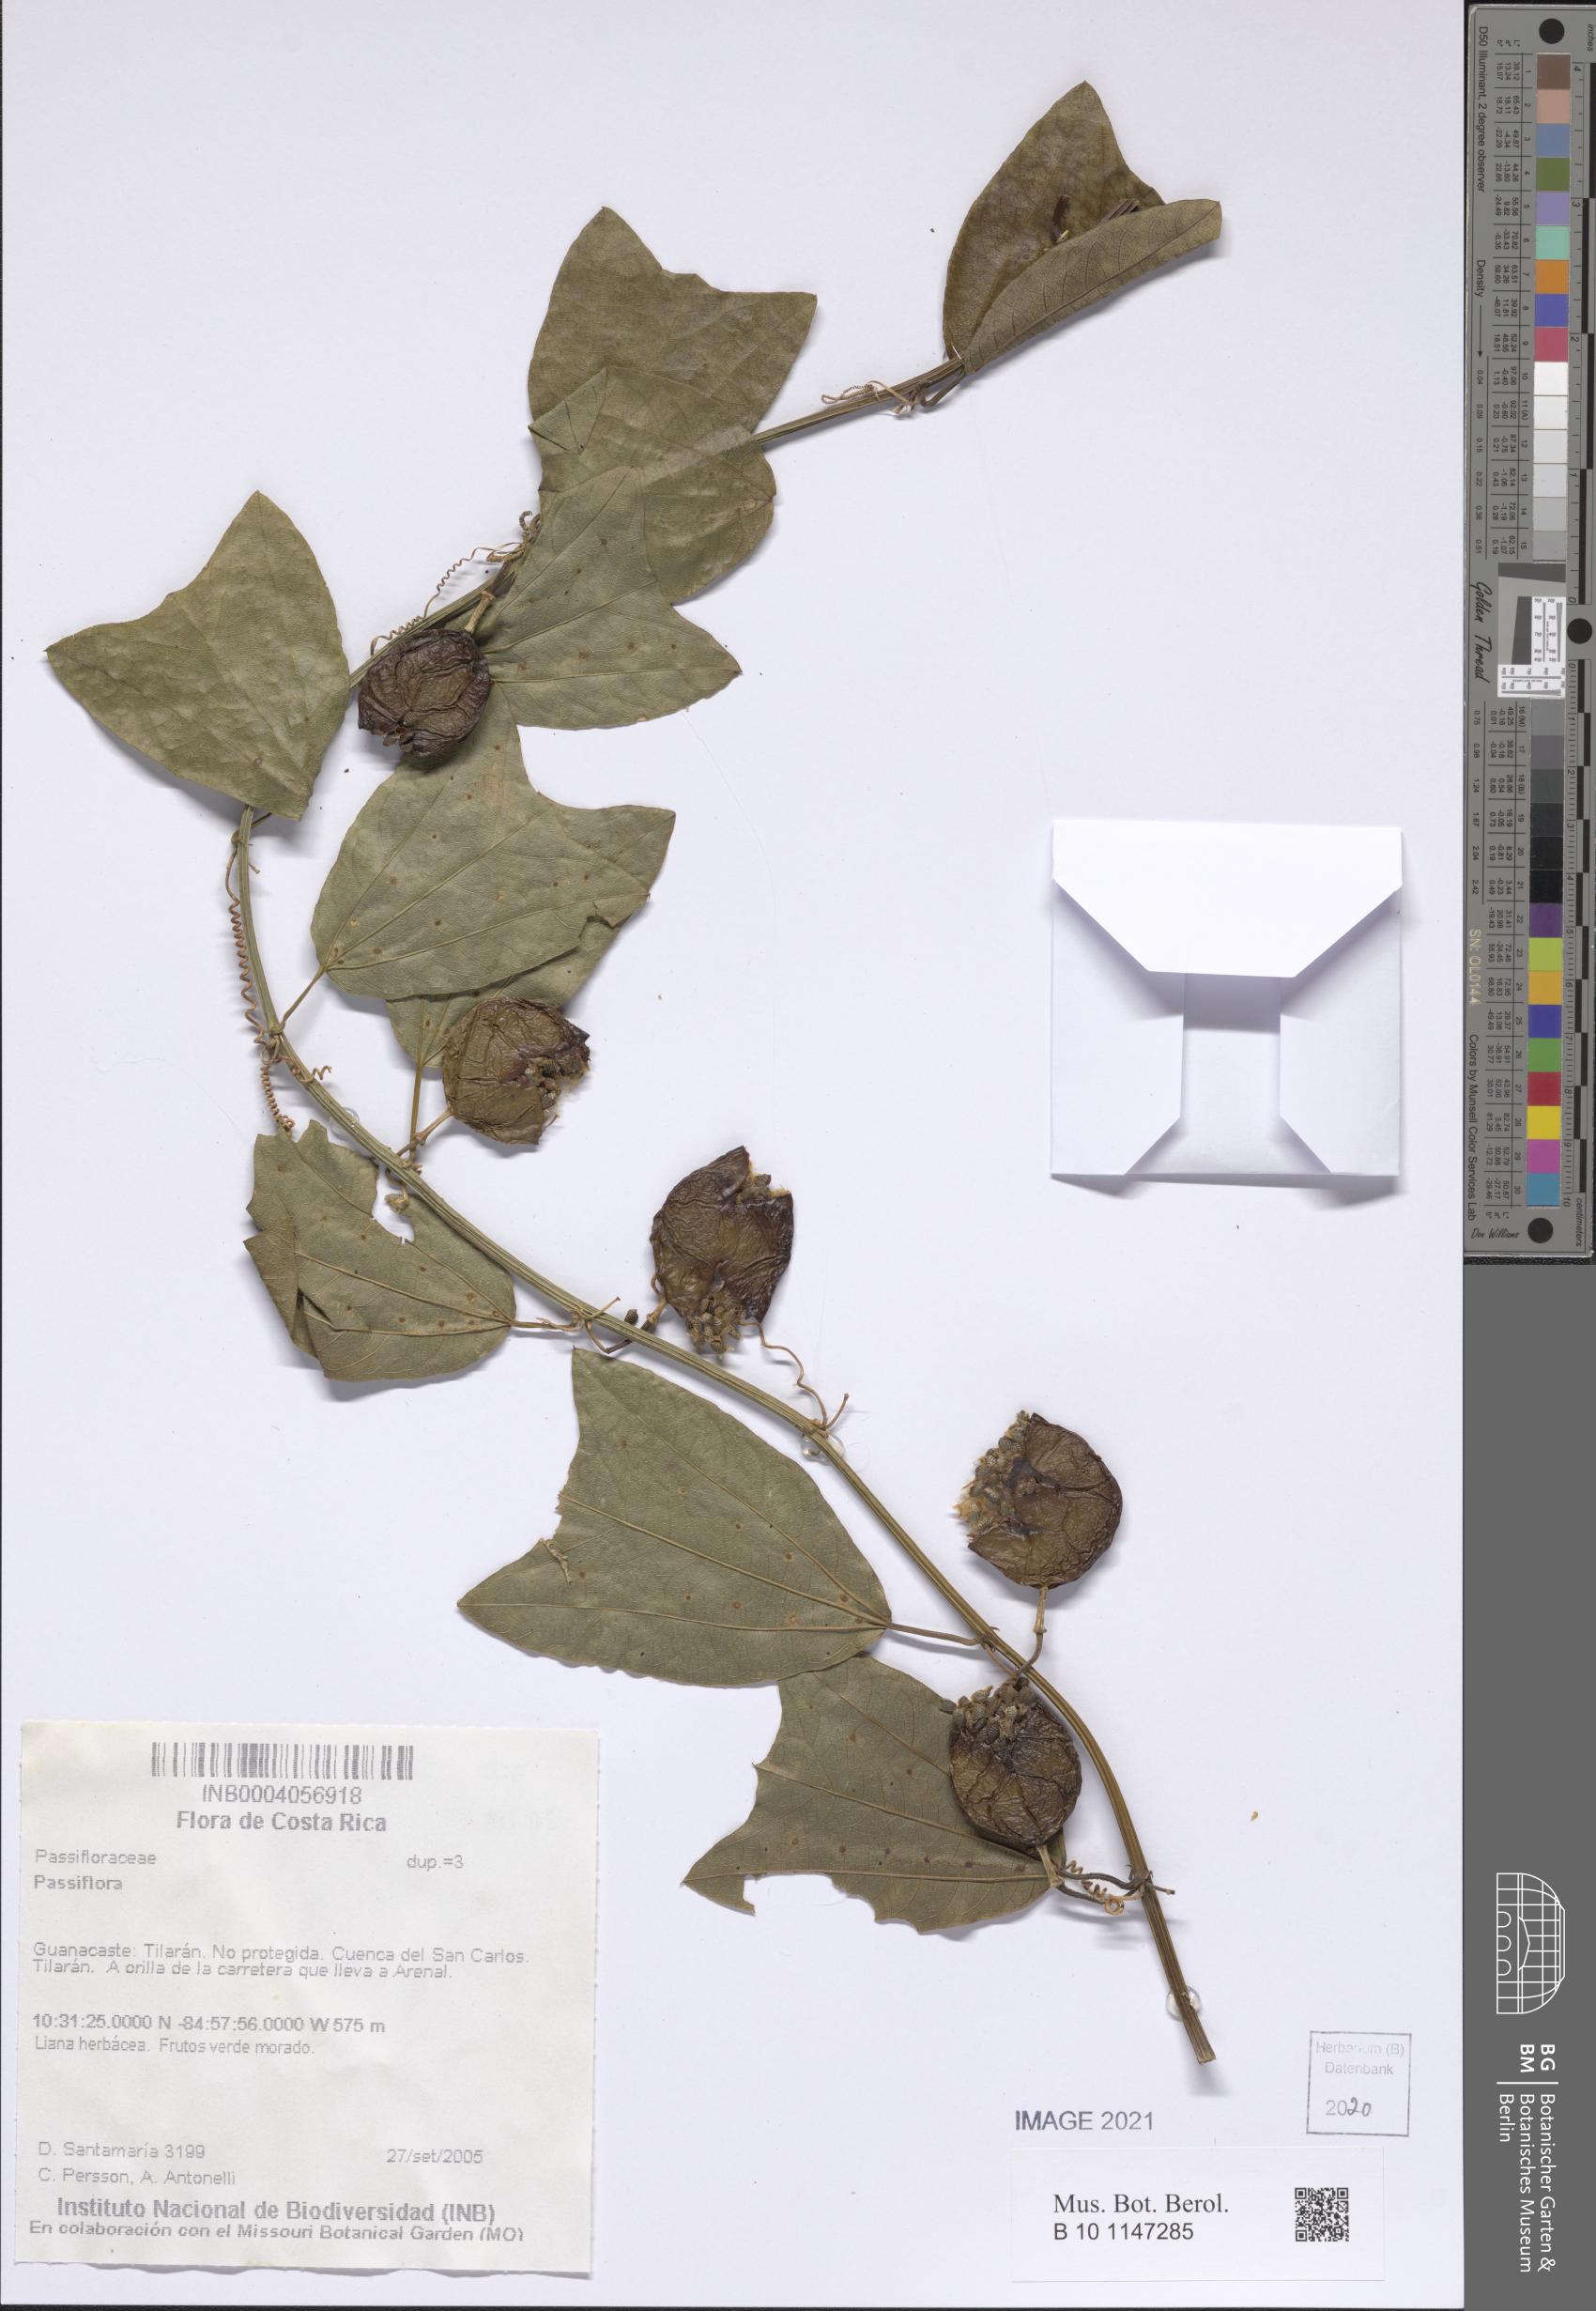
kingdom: Plantae
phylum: Tracheophyta
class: Magnoliopsida
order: Malpighiales
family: Passifloraceae
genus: Passiflora
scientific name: Passiflora
